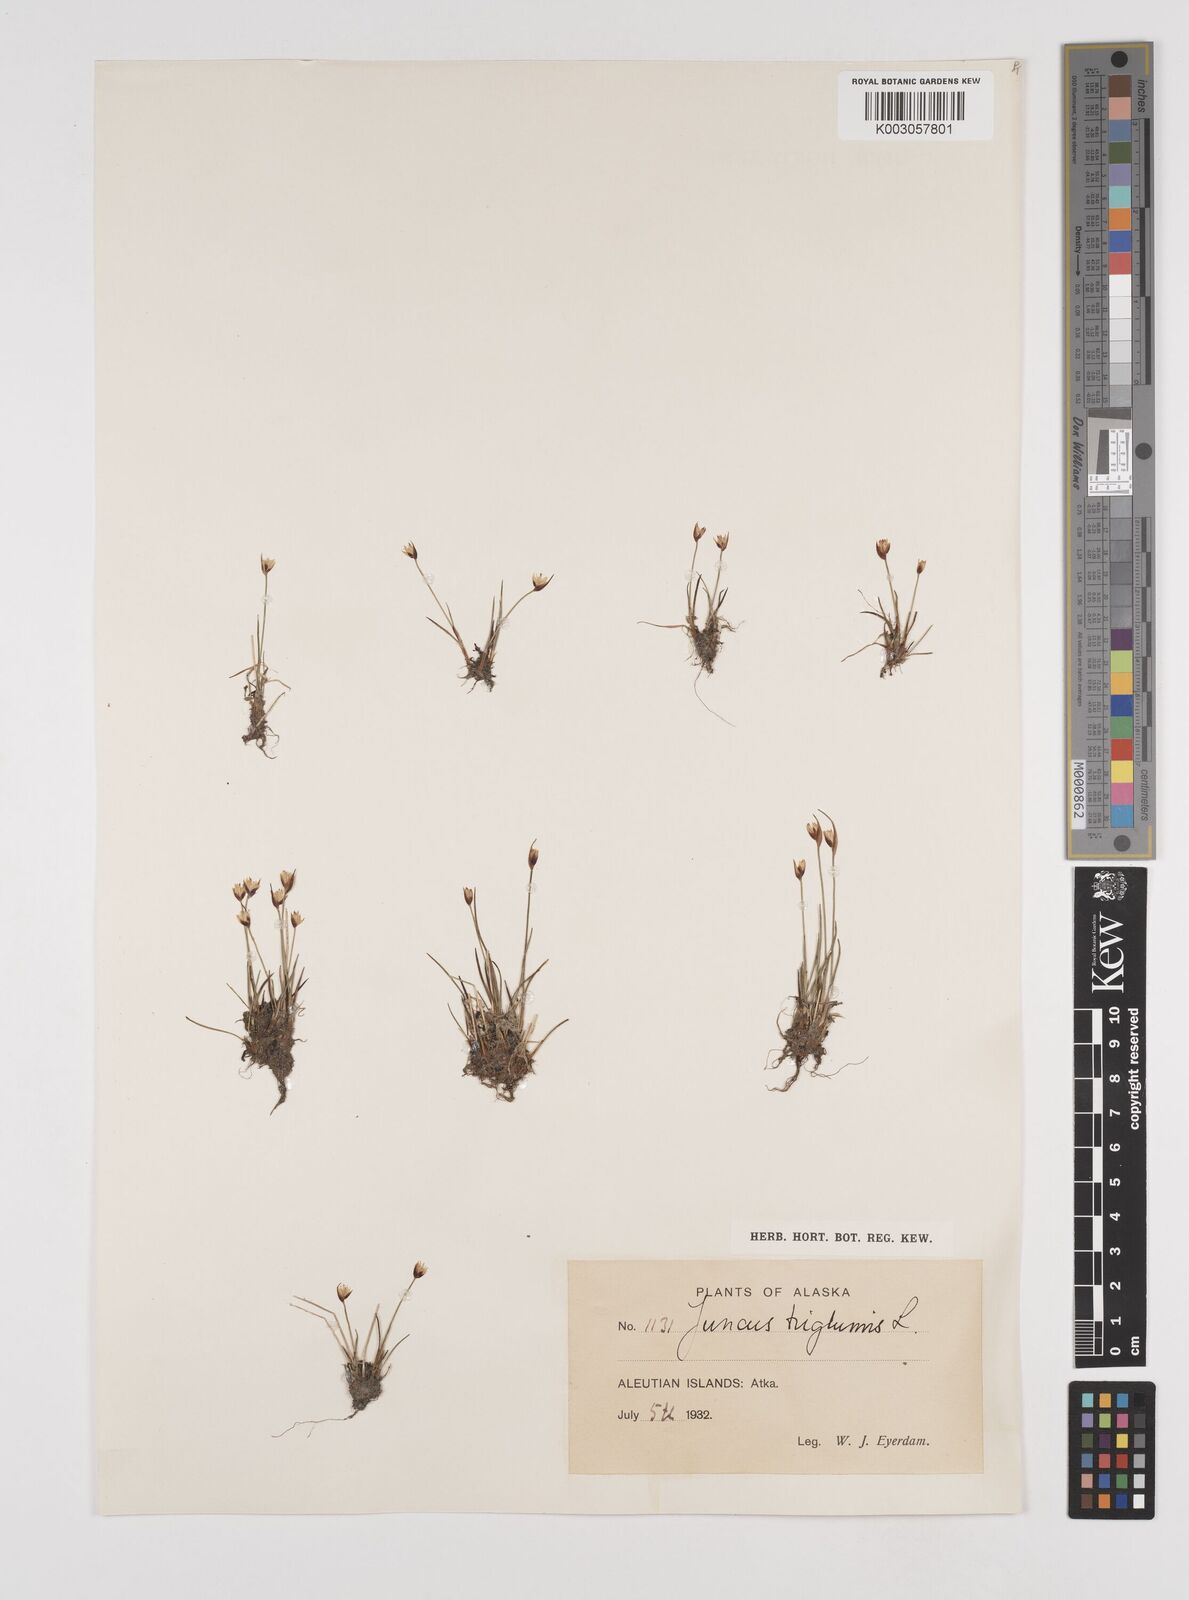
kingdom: Plantae
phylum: Tracheophyta
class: Liliopsida
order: Poales
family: Juncaceae
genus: Juncus
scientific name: Juncus triglumis
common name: Three-flowered rush
